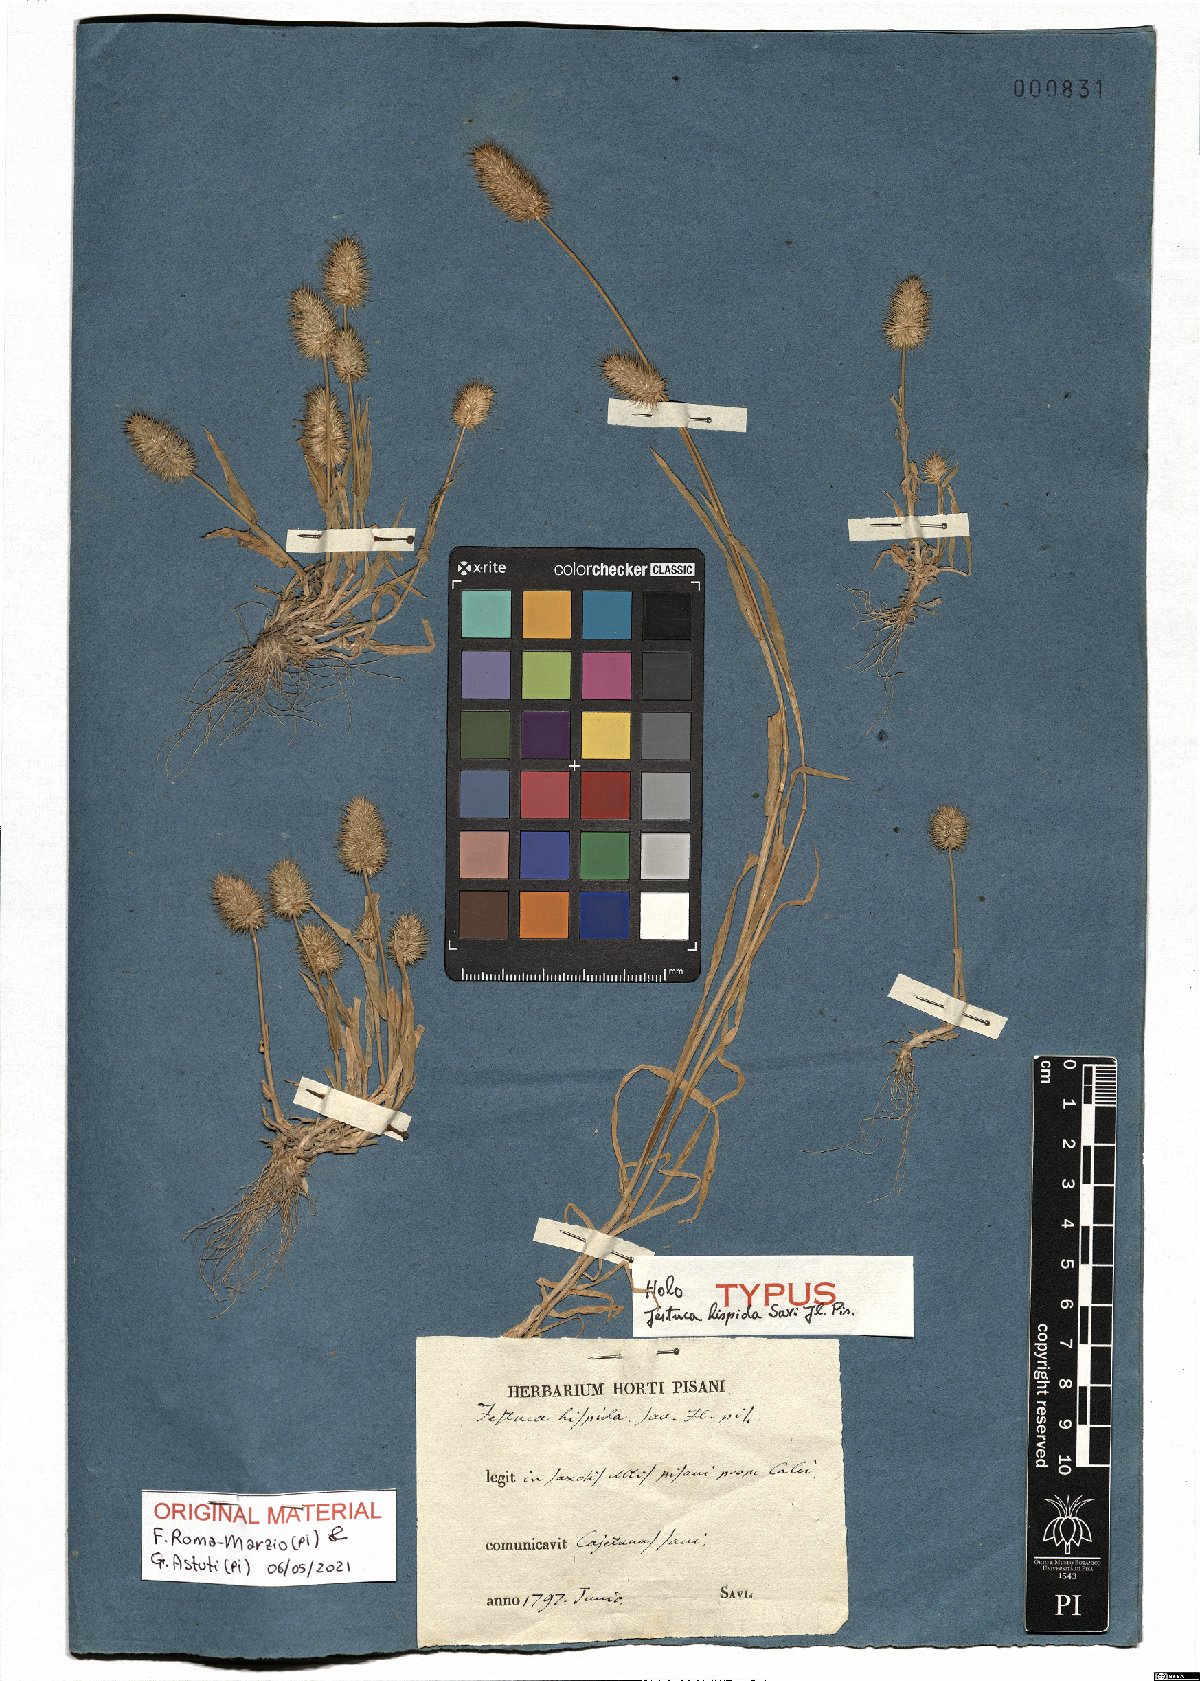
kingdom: Plantae
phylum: Tracheophyta
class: Liliopsida
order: Poales
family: Poaceae
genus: Rostraria
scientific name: Rostraria hispida
